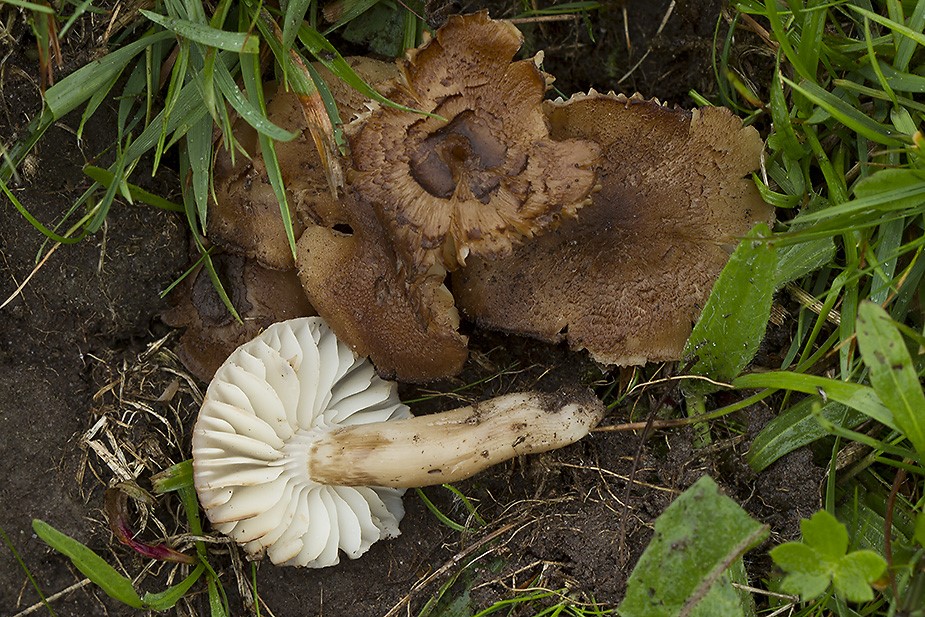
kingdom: Fungi
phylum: Basidiomycota
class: Agaricomycetes
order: Agaricales
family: Hygrophoraceae
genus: Neohygrocybe
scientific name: Neohygrocybe
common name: vokshat
